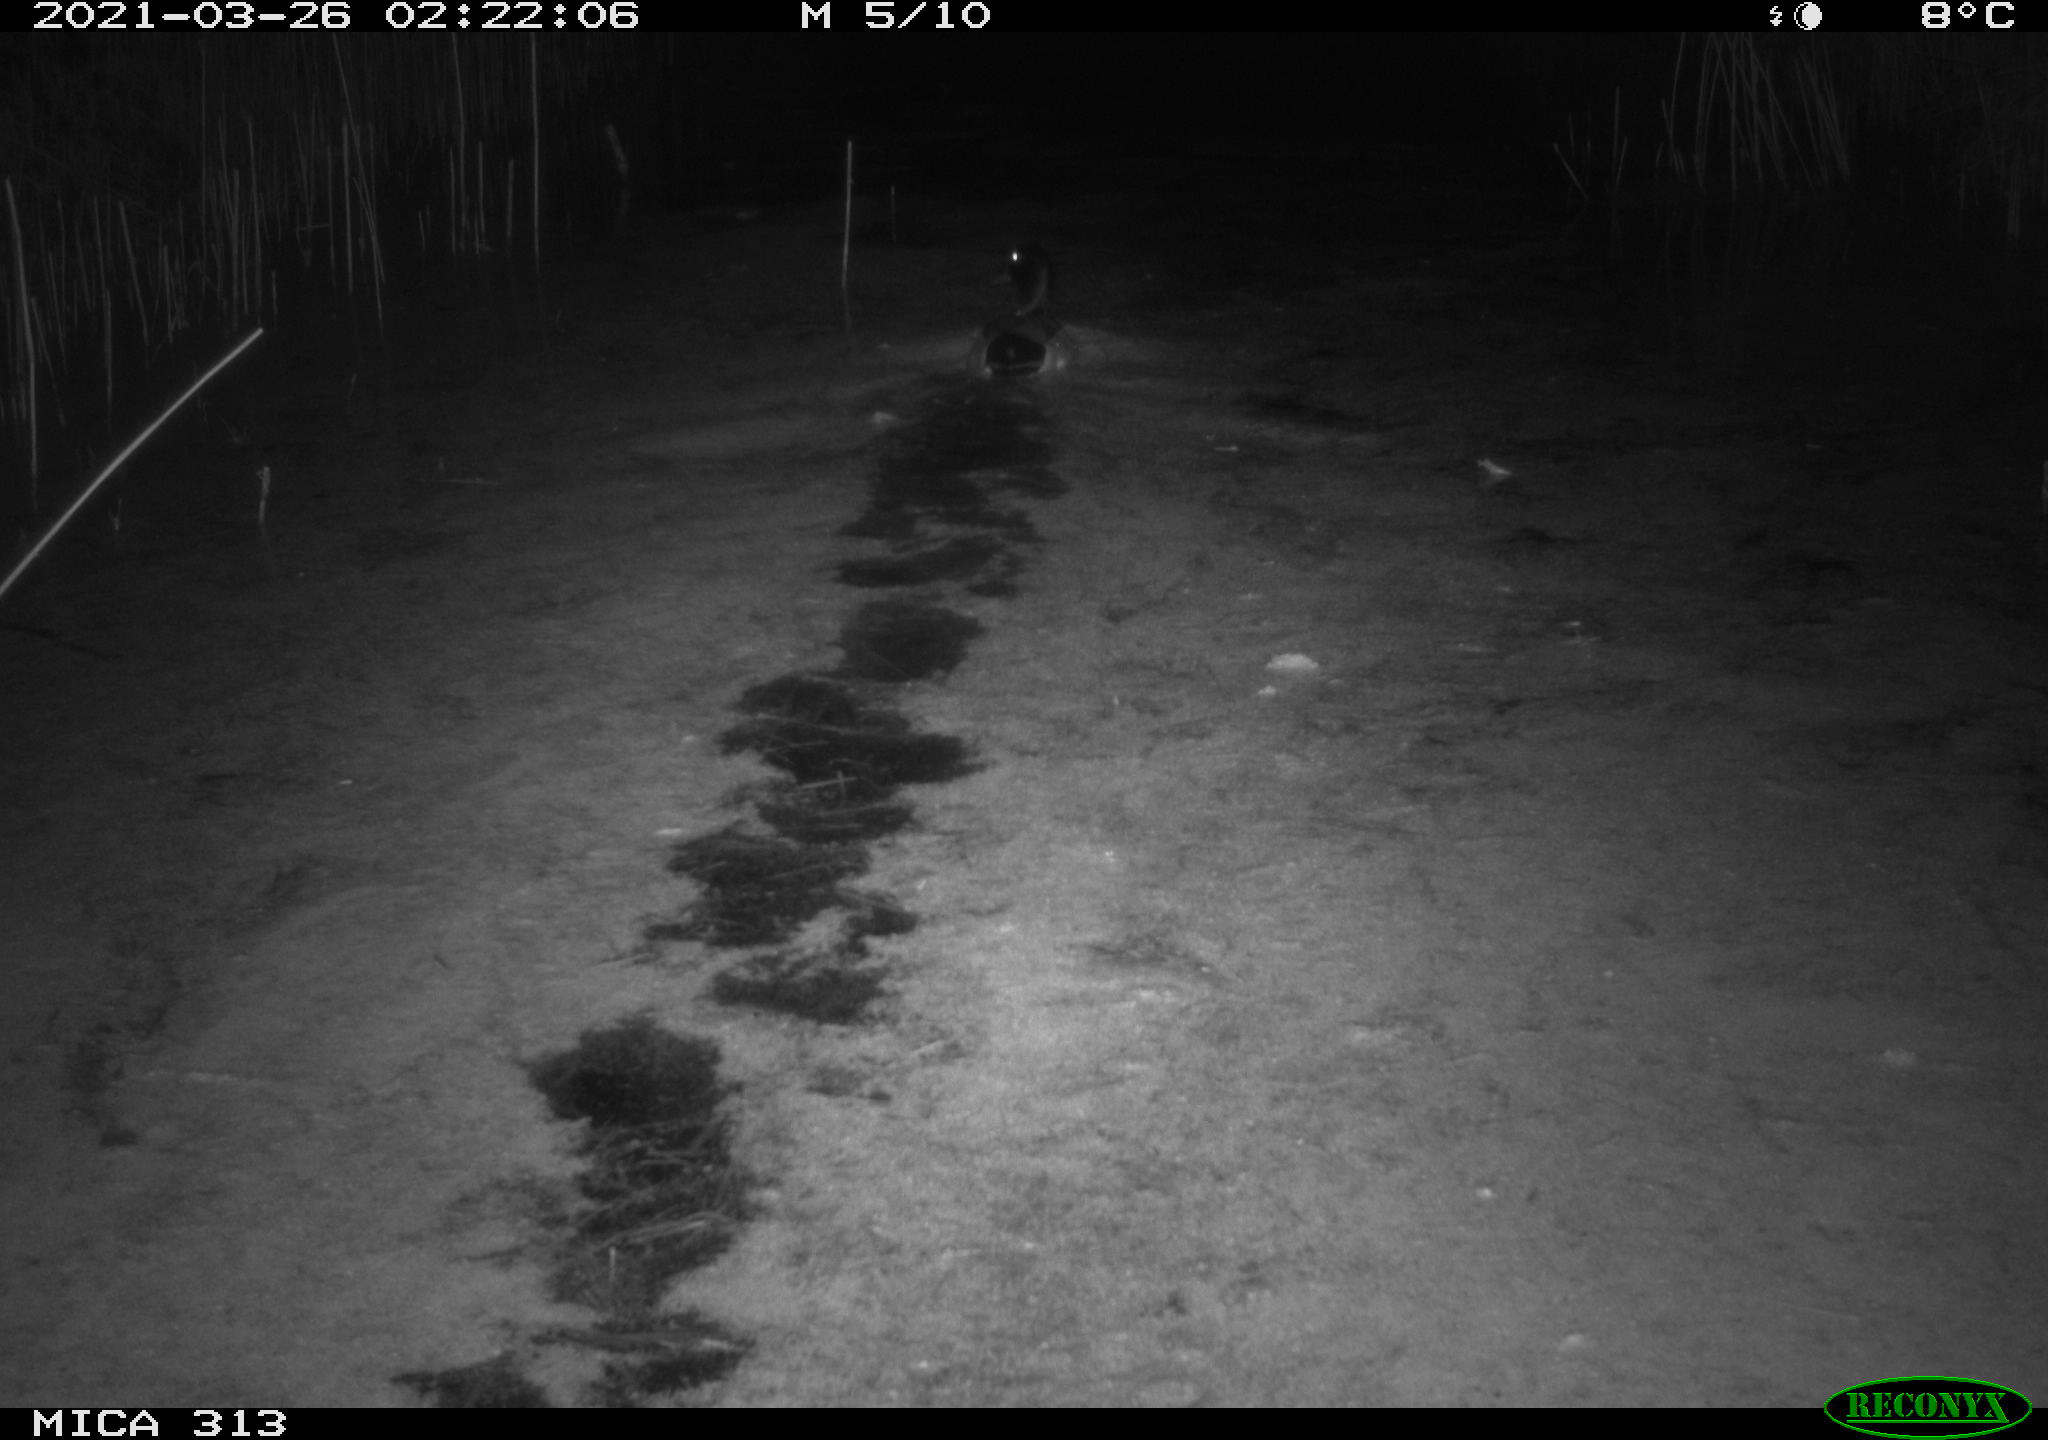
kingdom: Animalia
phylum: Chordata
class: Aves
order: Anseriformes
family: Anatidae
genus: Anas
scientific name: Anas platyrhynchos
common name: Mallard
